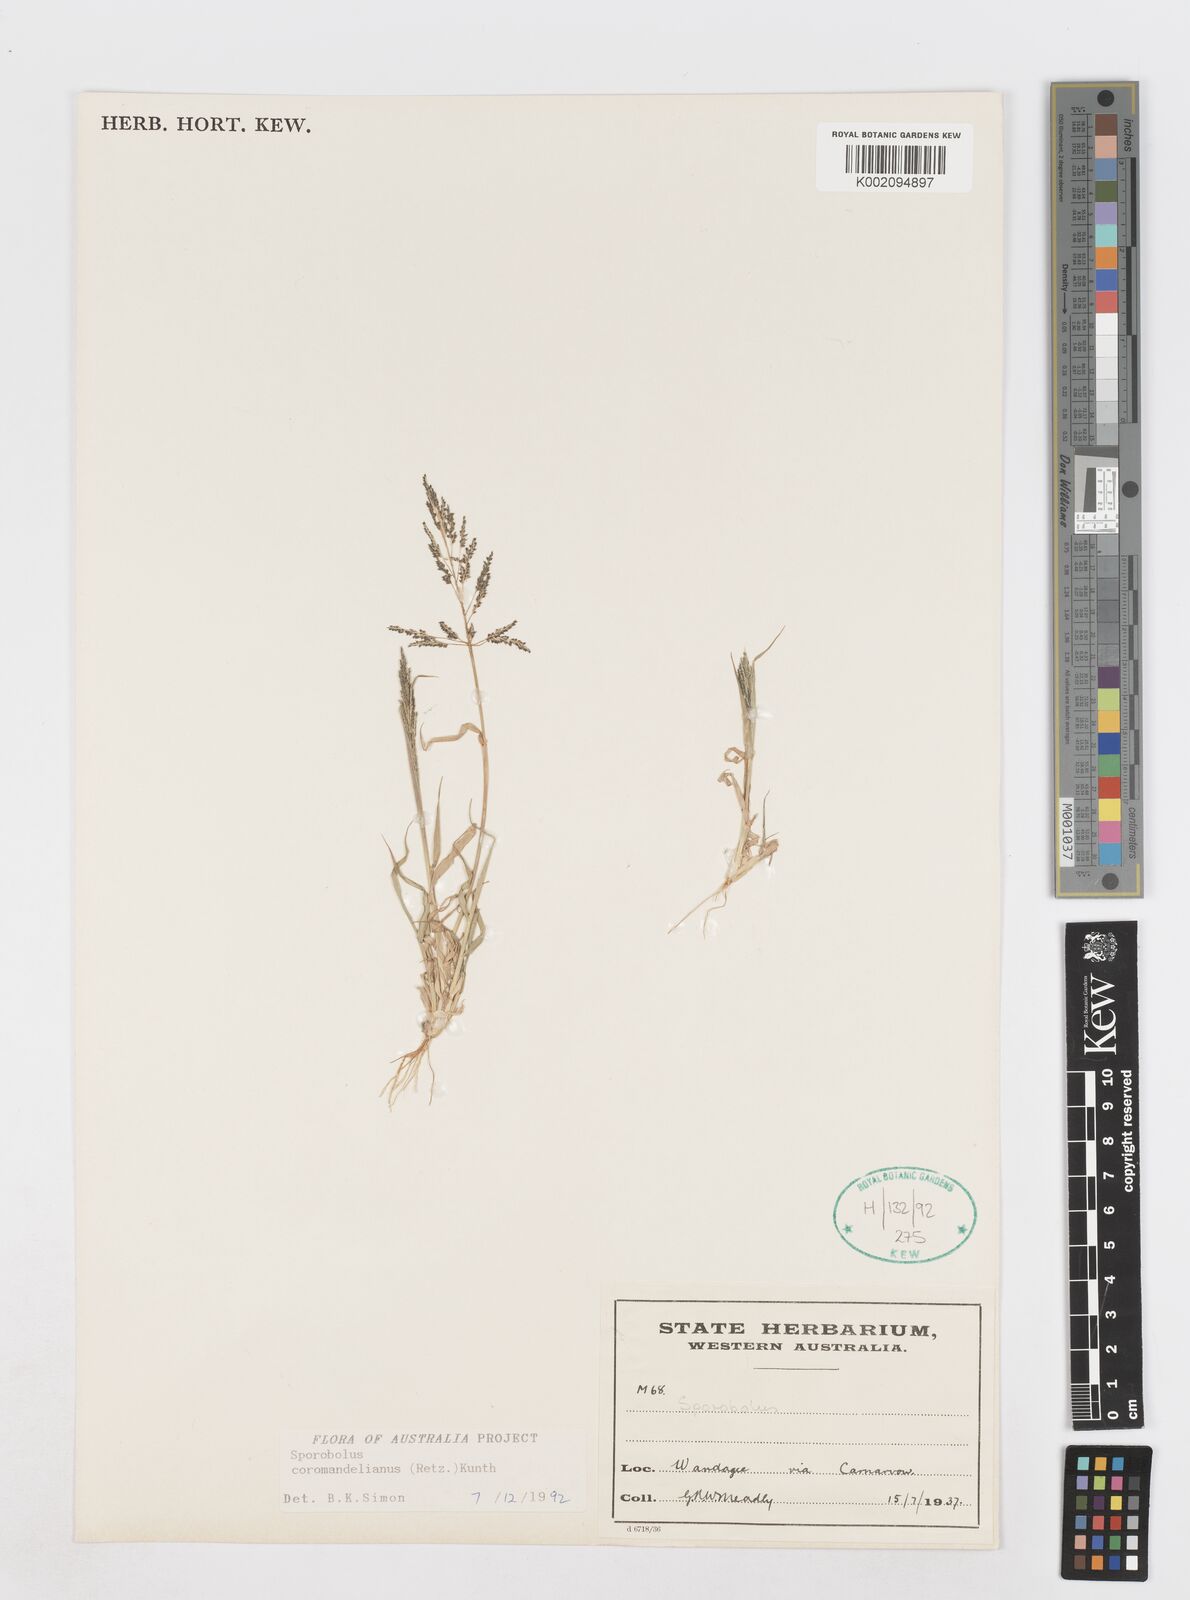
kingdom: Plantae
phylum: Tracheophyta
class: Liliopsida
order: Poales
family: Poaceae
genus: Sporobolus
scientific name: Sporobolus coromandelianus
